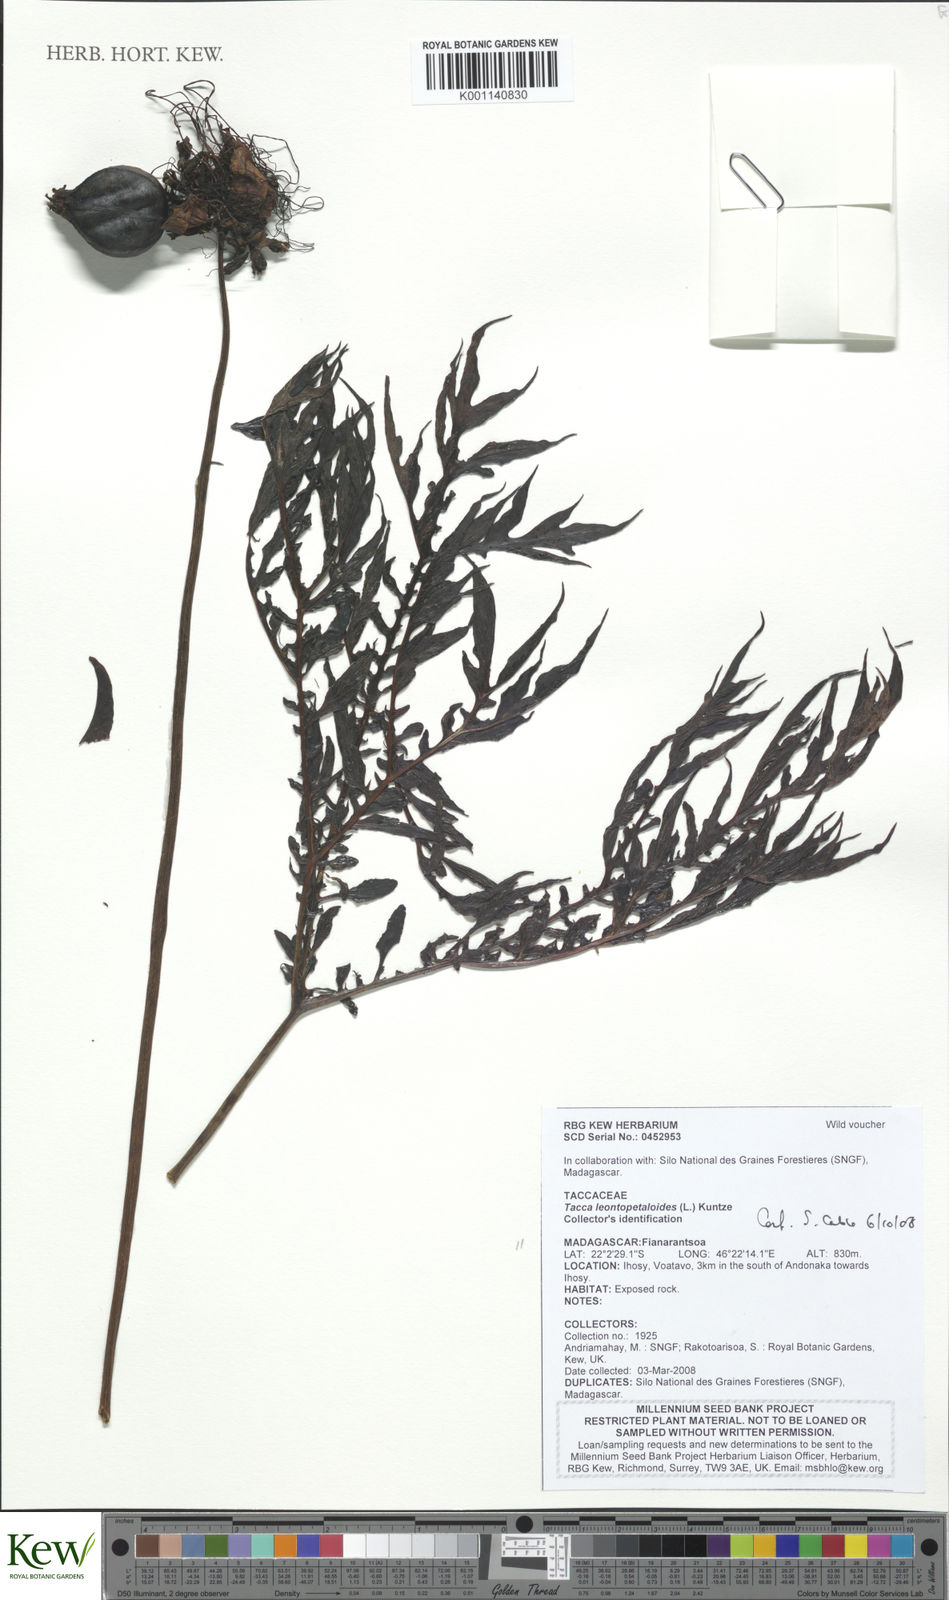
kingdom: Plantae
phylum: Tracheophyta
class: Liliopsida
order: Dioscoreales
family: Dioscoreaceae
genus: Tacca
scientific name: Tacca leontopetaloides
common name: Arrowroot
